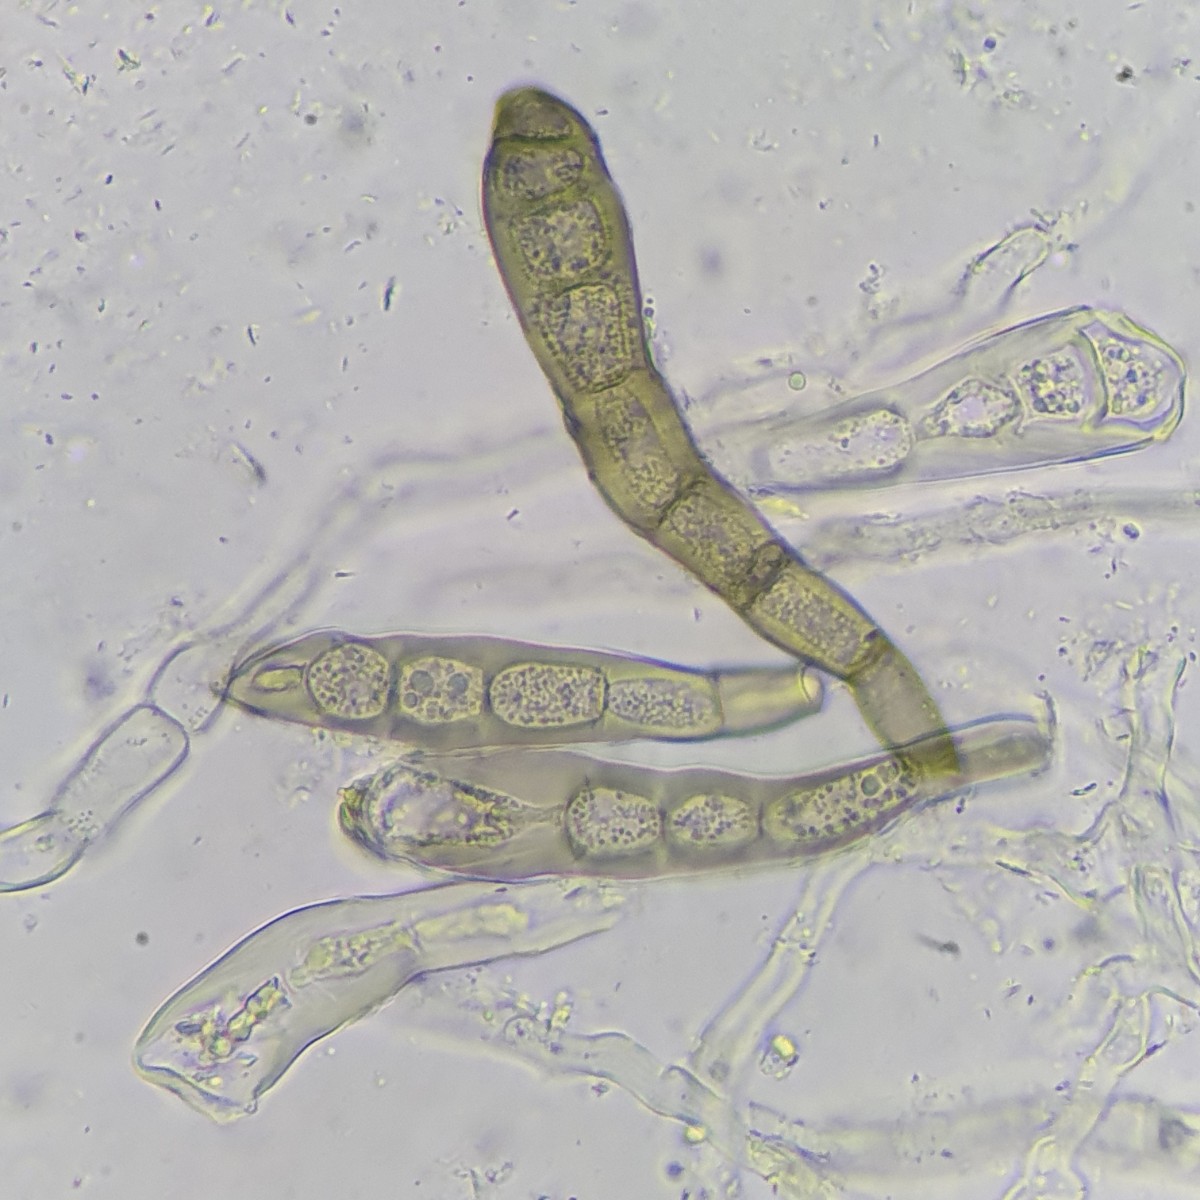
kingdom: Fungi
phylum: Ascomycota
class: Sordariomycetes
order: Diaporthales
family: Coryneaceae
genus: Coryneum
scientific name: Coryneum neesii
